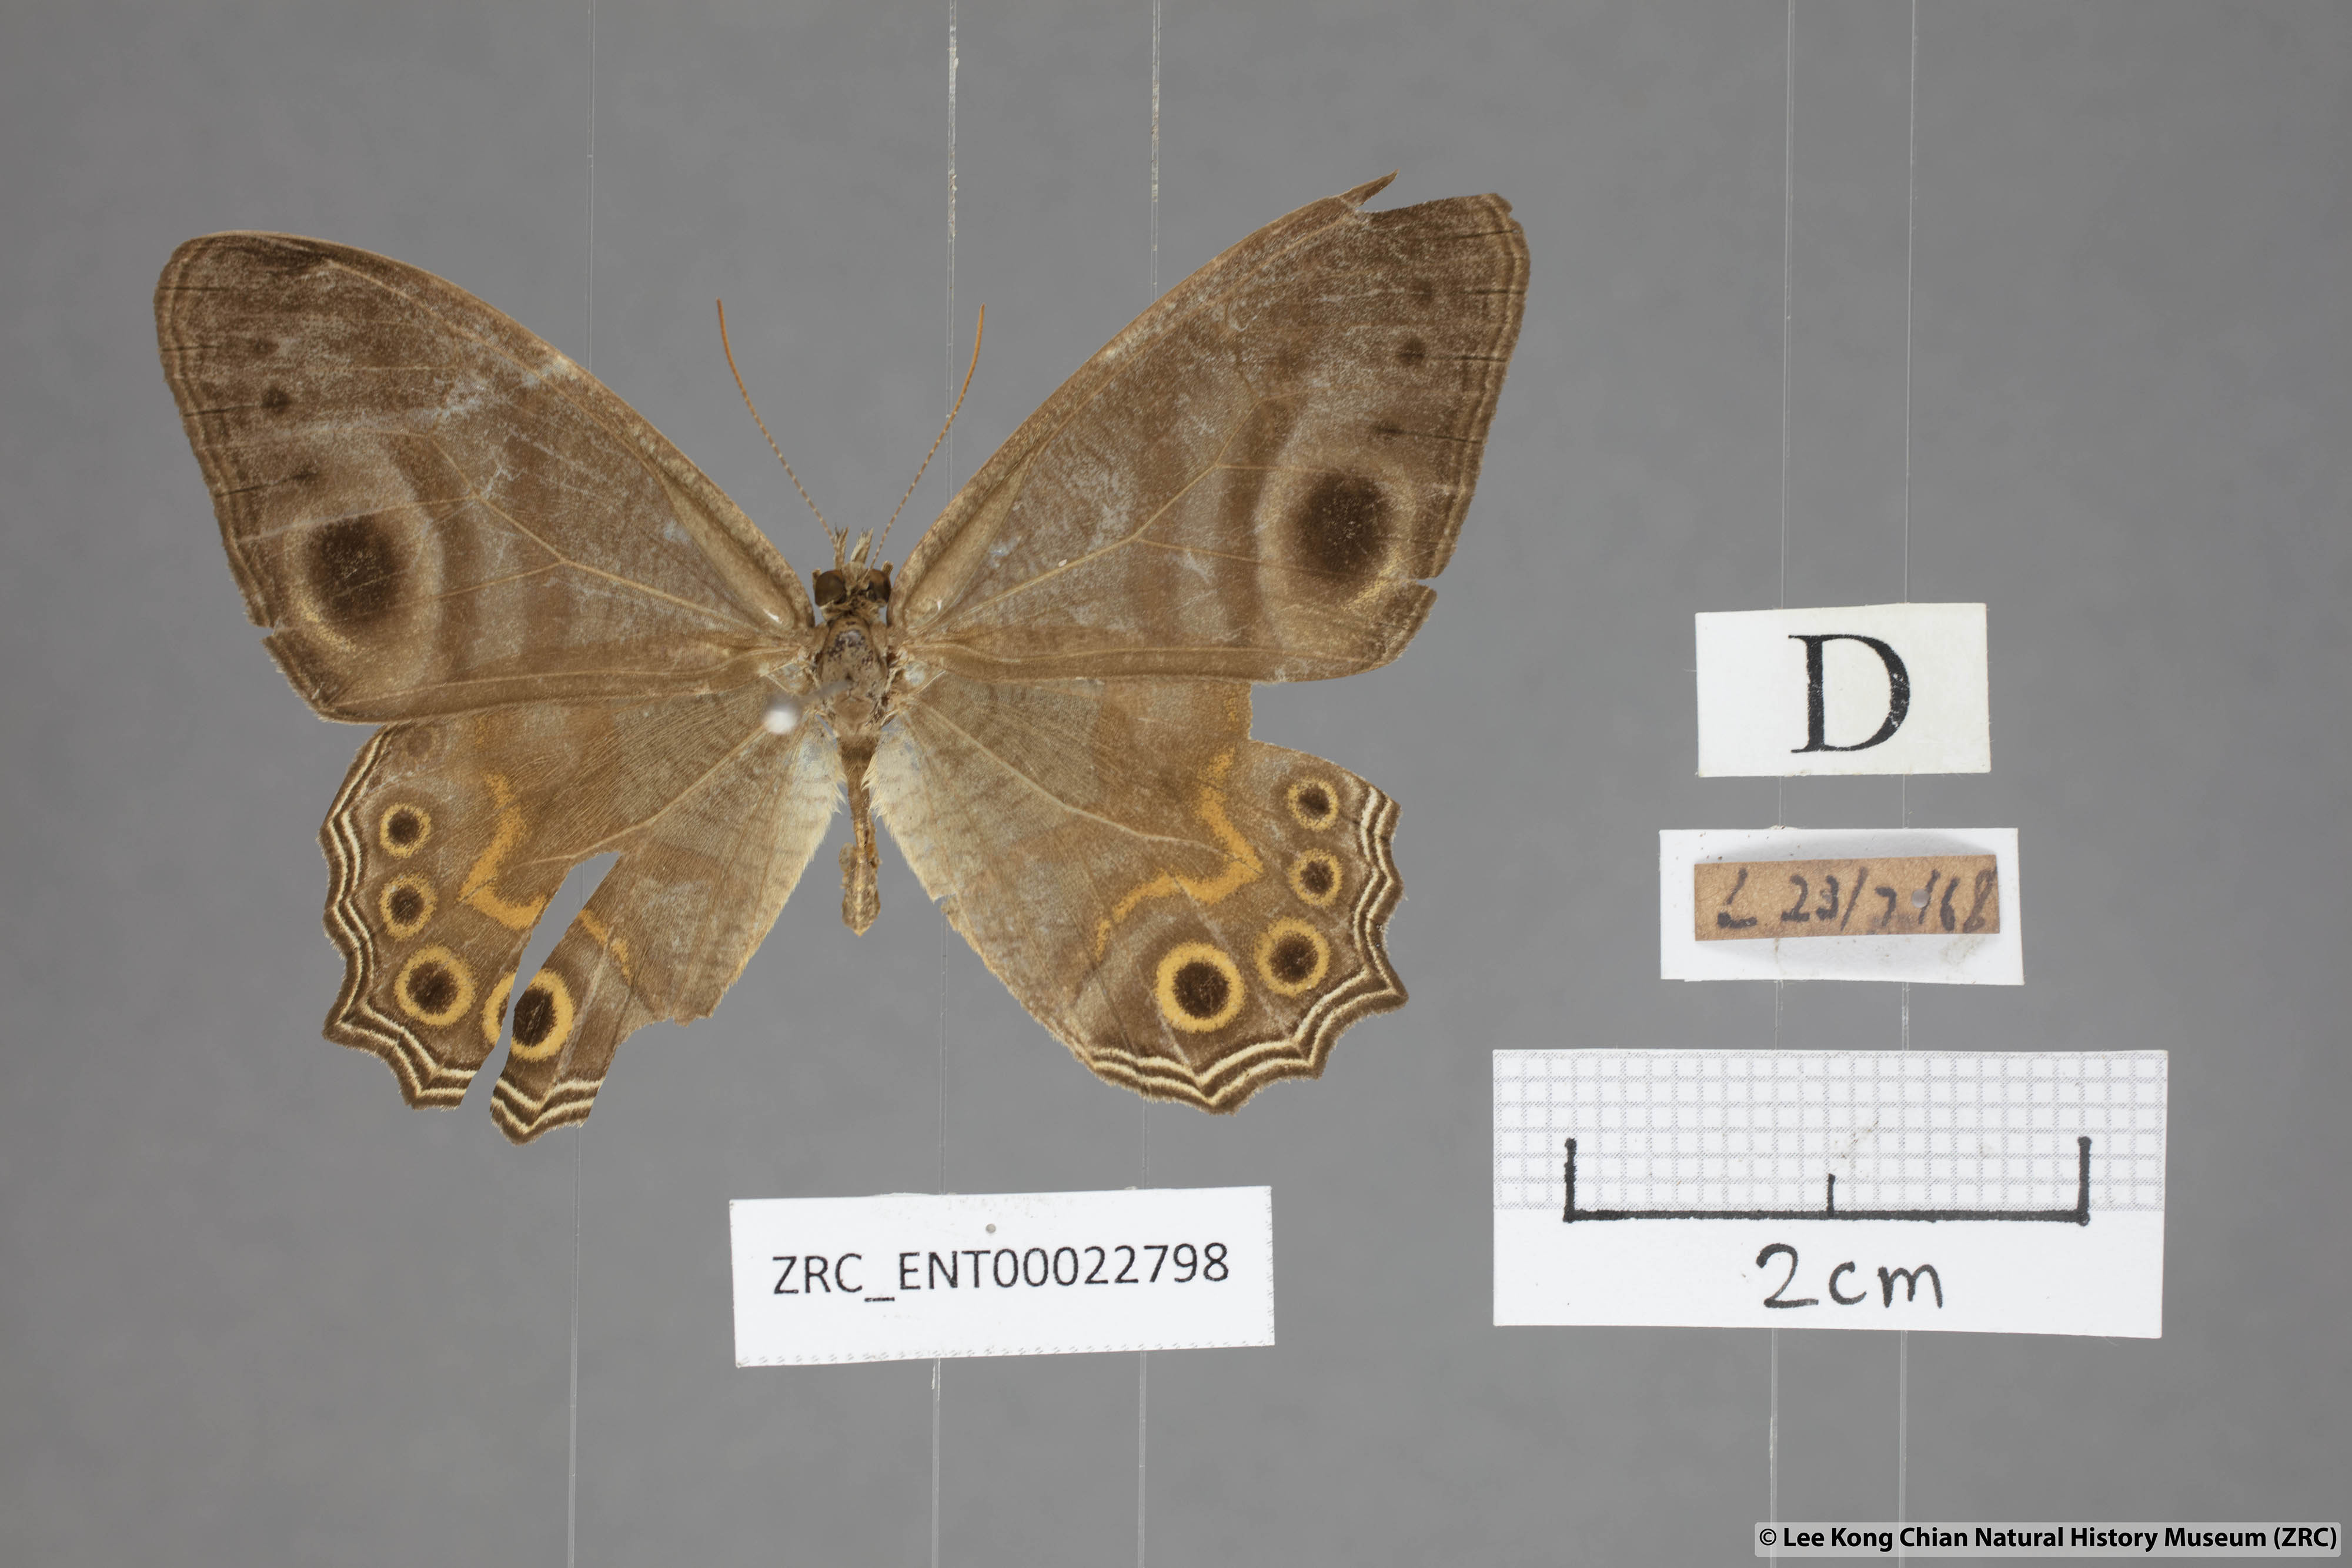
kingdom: Animalia
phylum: Arthropoda
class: Insecta
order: Lepidoptera
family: Nymphalidae
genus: Erites
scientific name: Erites angularis
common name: Angled cyclops
